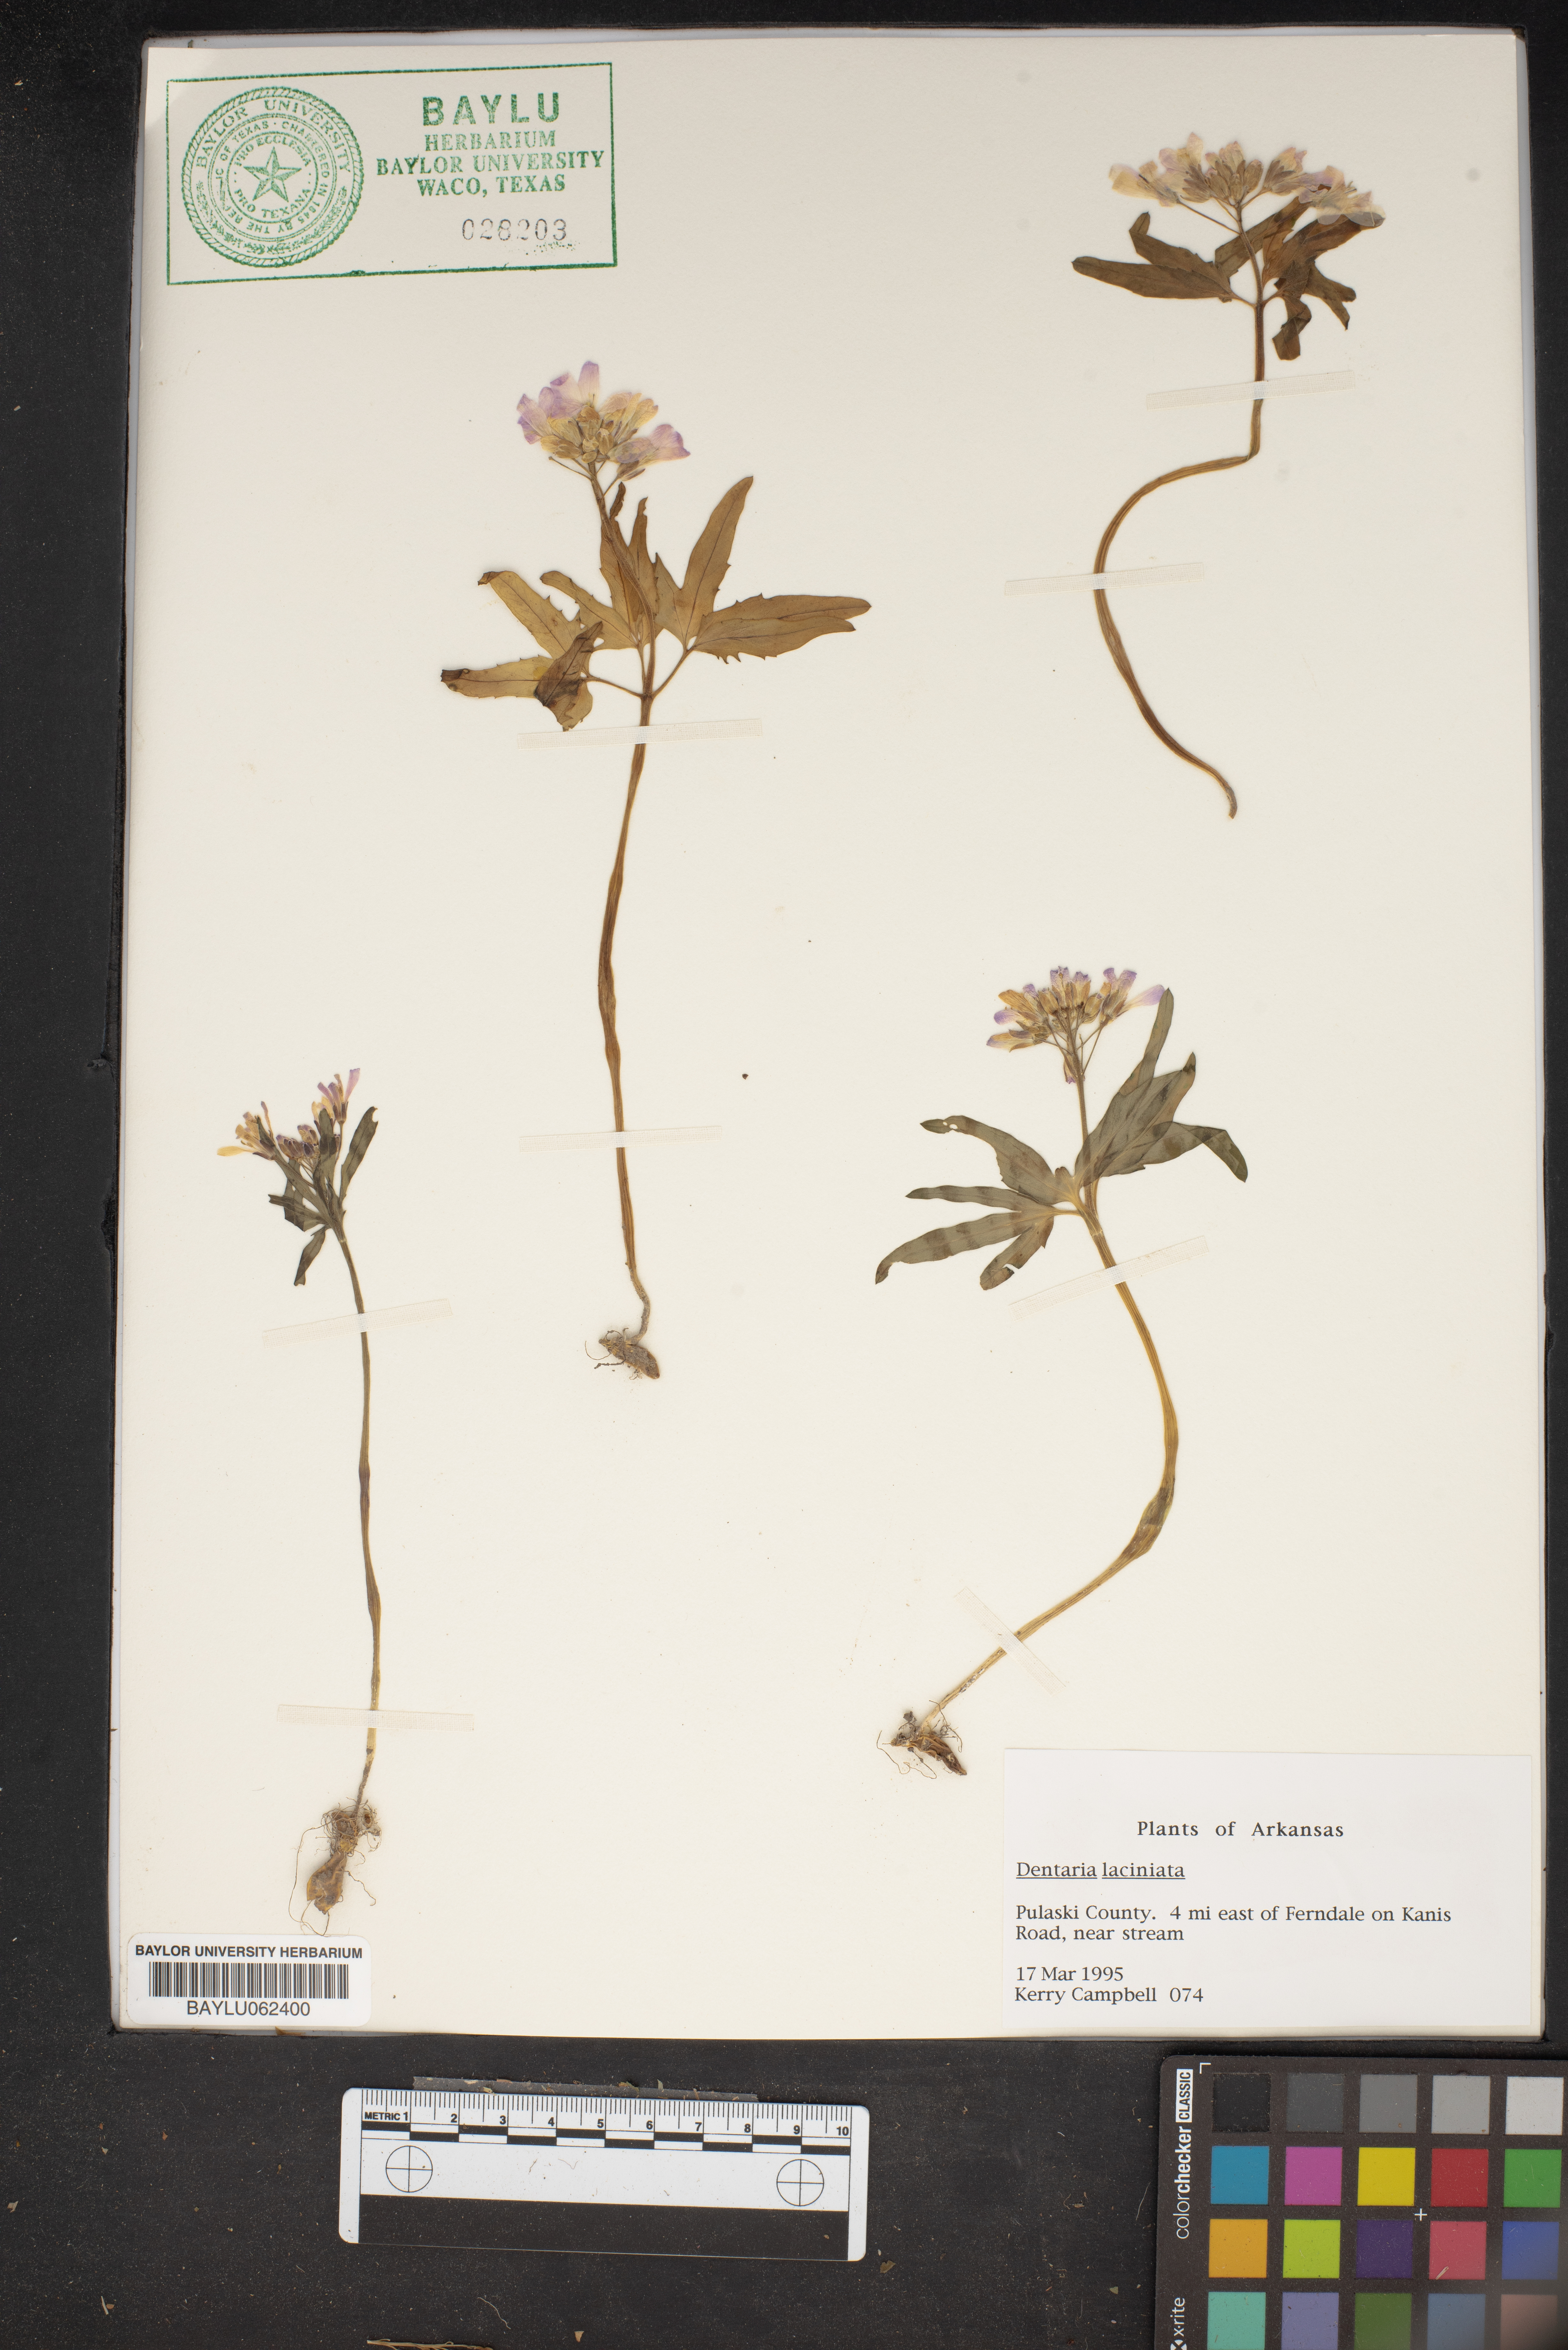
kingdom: Plantae
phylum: Tracheophyta
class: Magnoliopsida
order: Brassicales
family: Brassicaceae
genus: Cardamine
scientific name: Cardamine concatenata
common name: Cut-leaf toothcup
